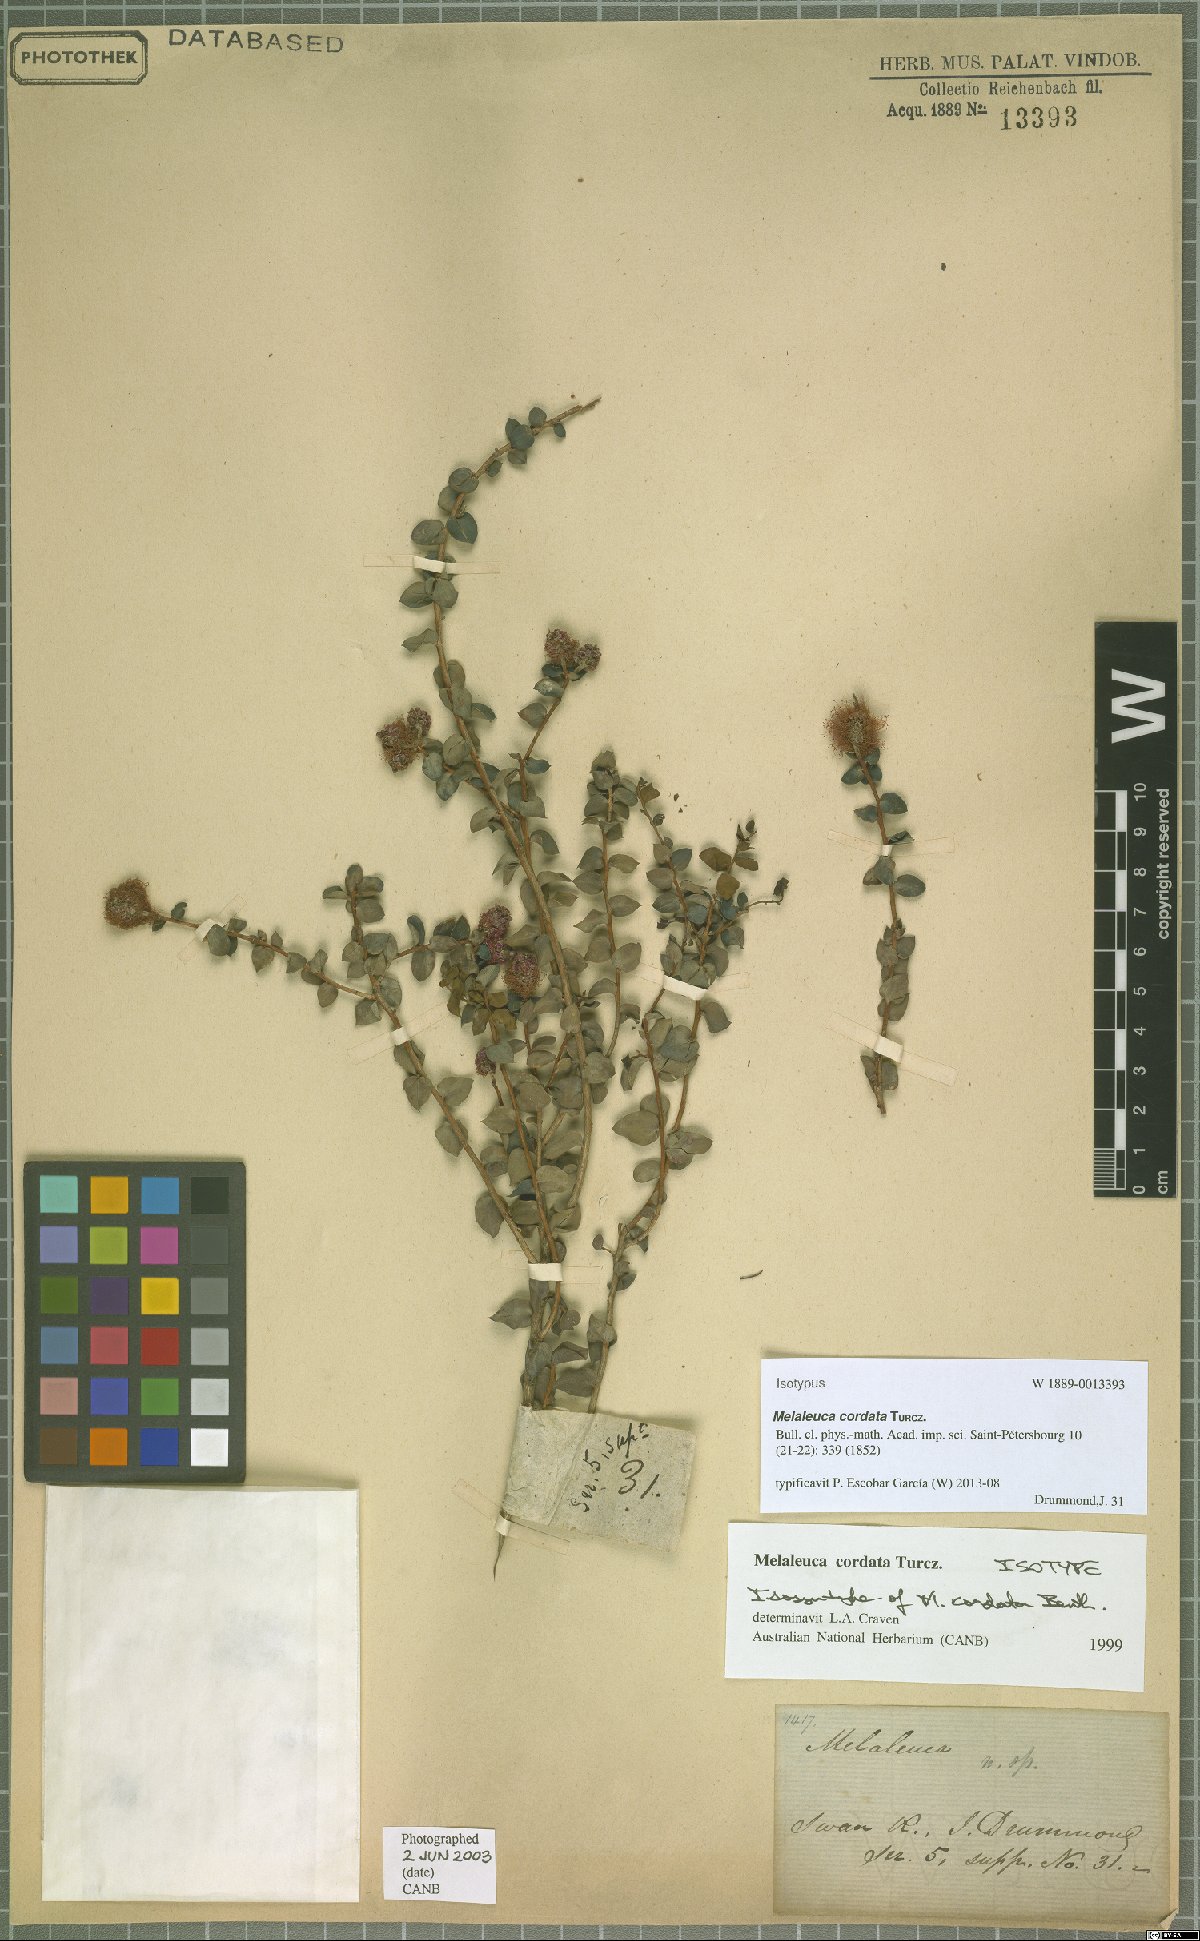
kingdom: Plantae
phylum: Tracheophyta
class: Magnoliopsida
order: Myrtales
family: Myrtaceae
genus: Melaleuca
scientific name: Melaleuca cordata
